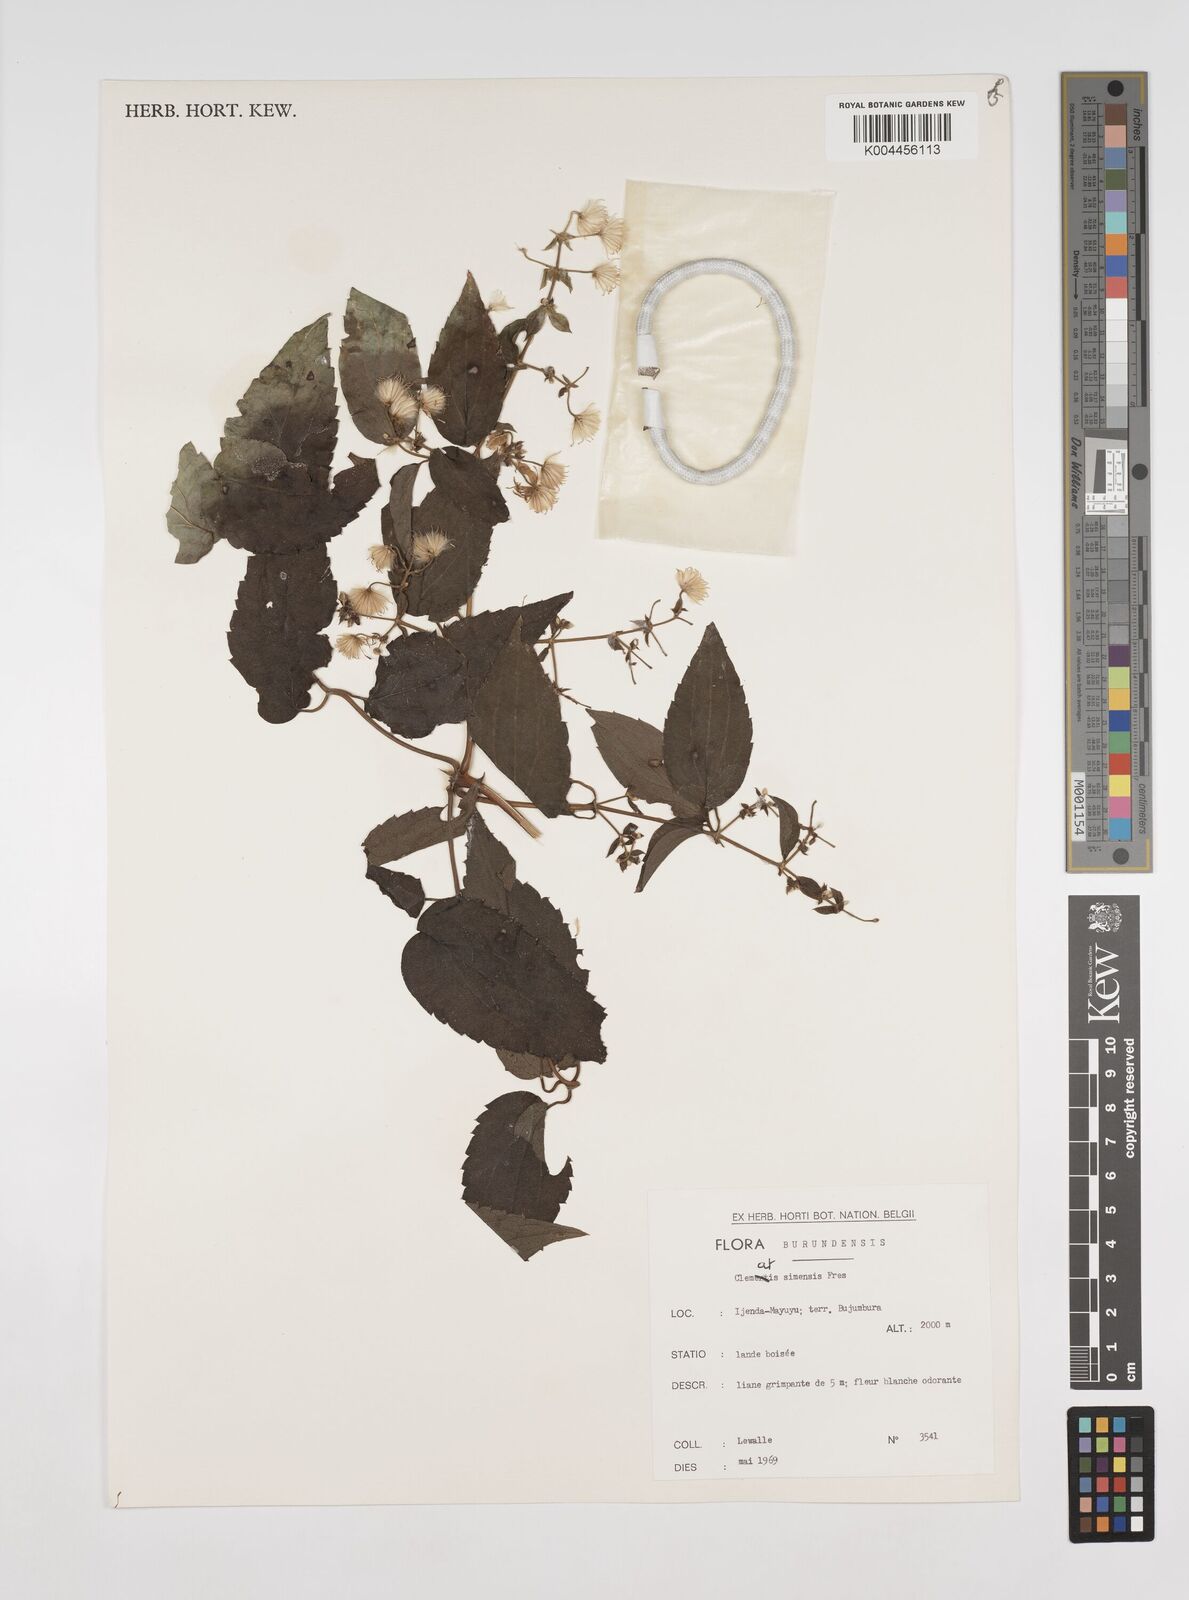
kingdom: Plantae
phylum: Tracheophyta
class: Magnoliopsida
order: Ranunculales
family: Ranunculaceae
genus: Clematis
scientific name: Clematis simensis
